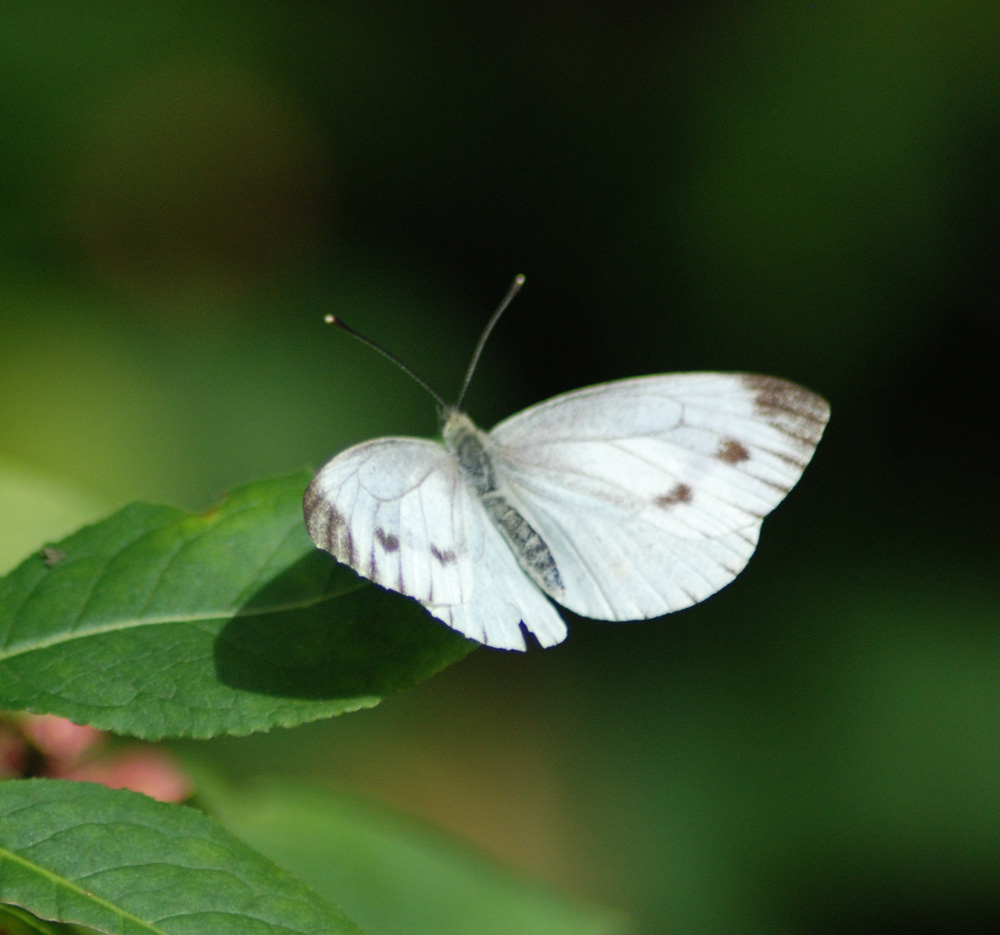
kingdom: Animalia
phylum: Arthropoda
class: Insecta
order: Lepidoptera
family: Pieridae
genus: Pieris
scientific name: Pieris rapae
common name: Small white
